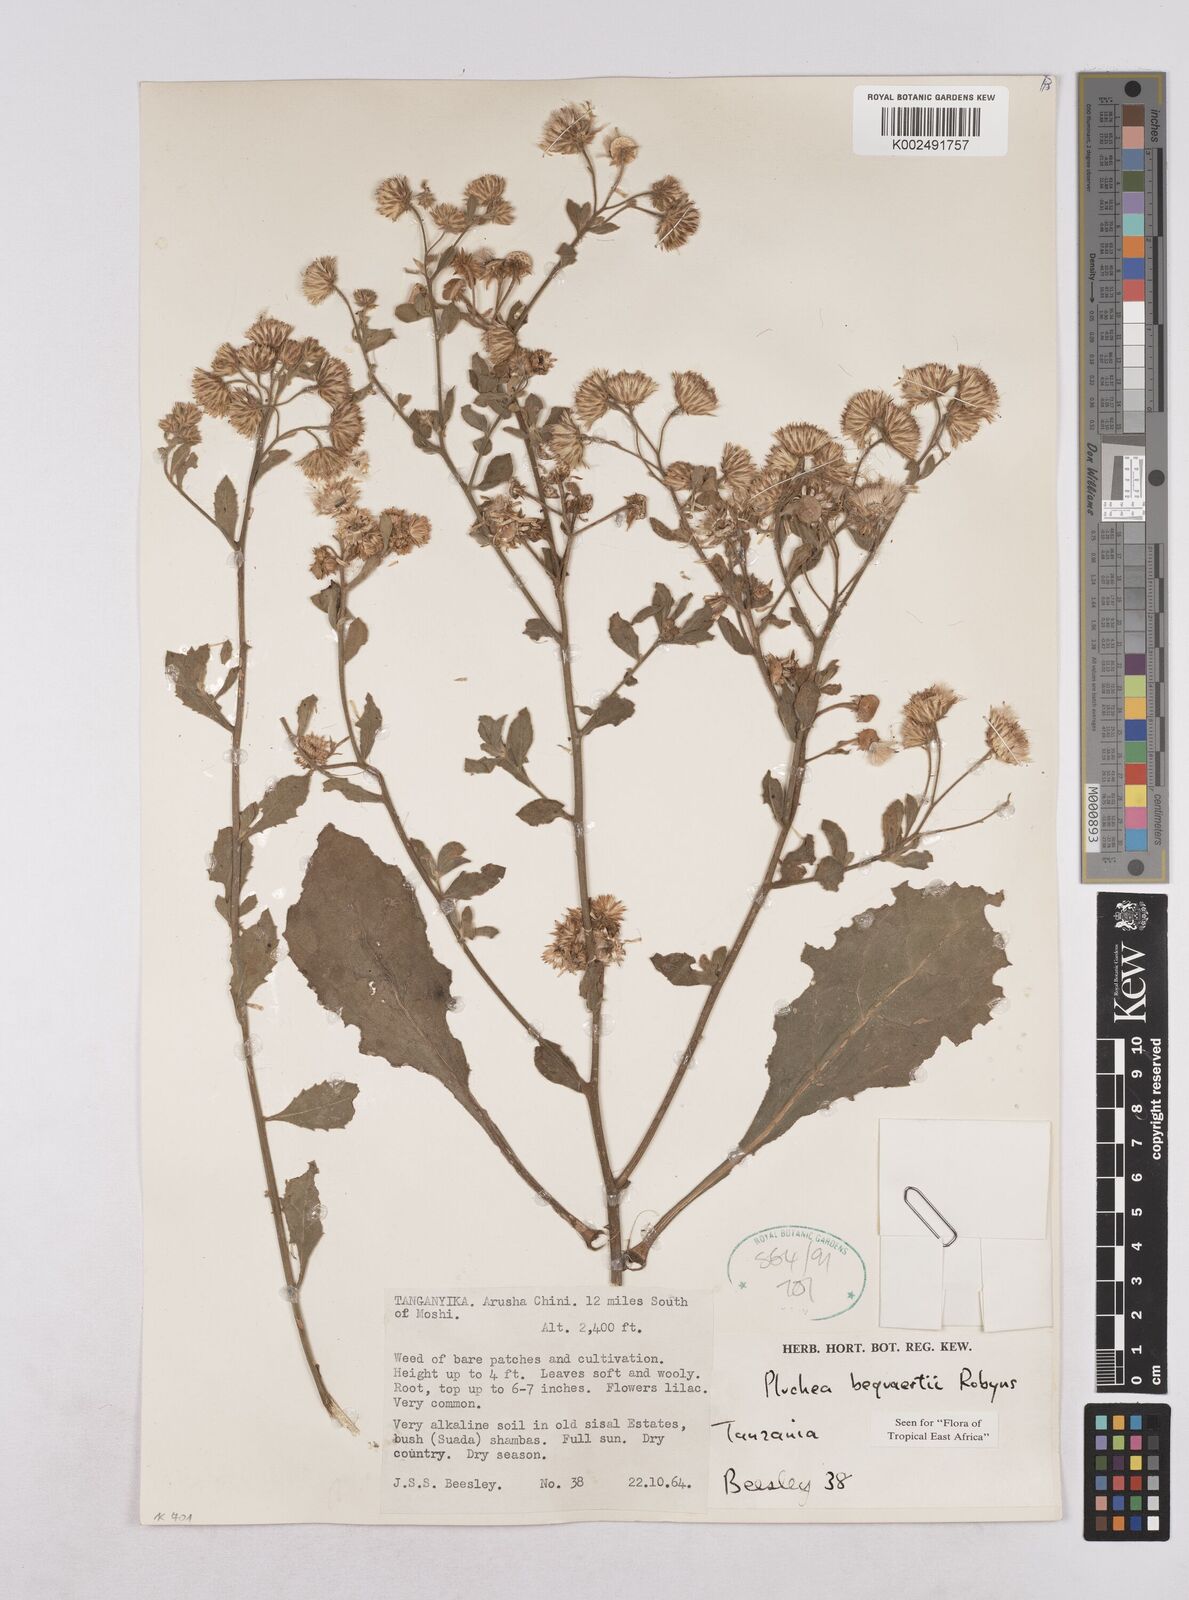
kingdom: Plantae
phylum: Tracheophyta
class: Magnoliopsida
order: Asterales
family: Asteraceae
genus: Pluchea
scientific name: Pluchea sordida
